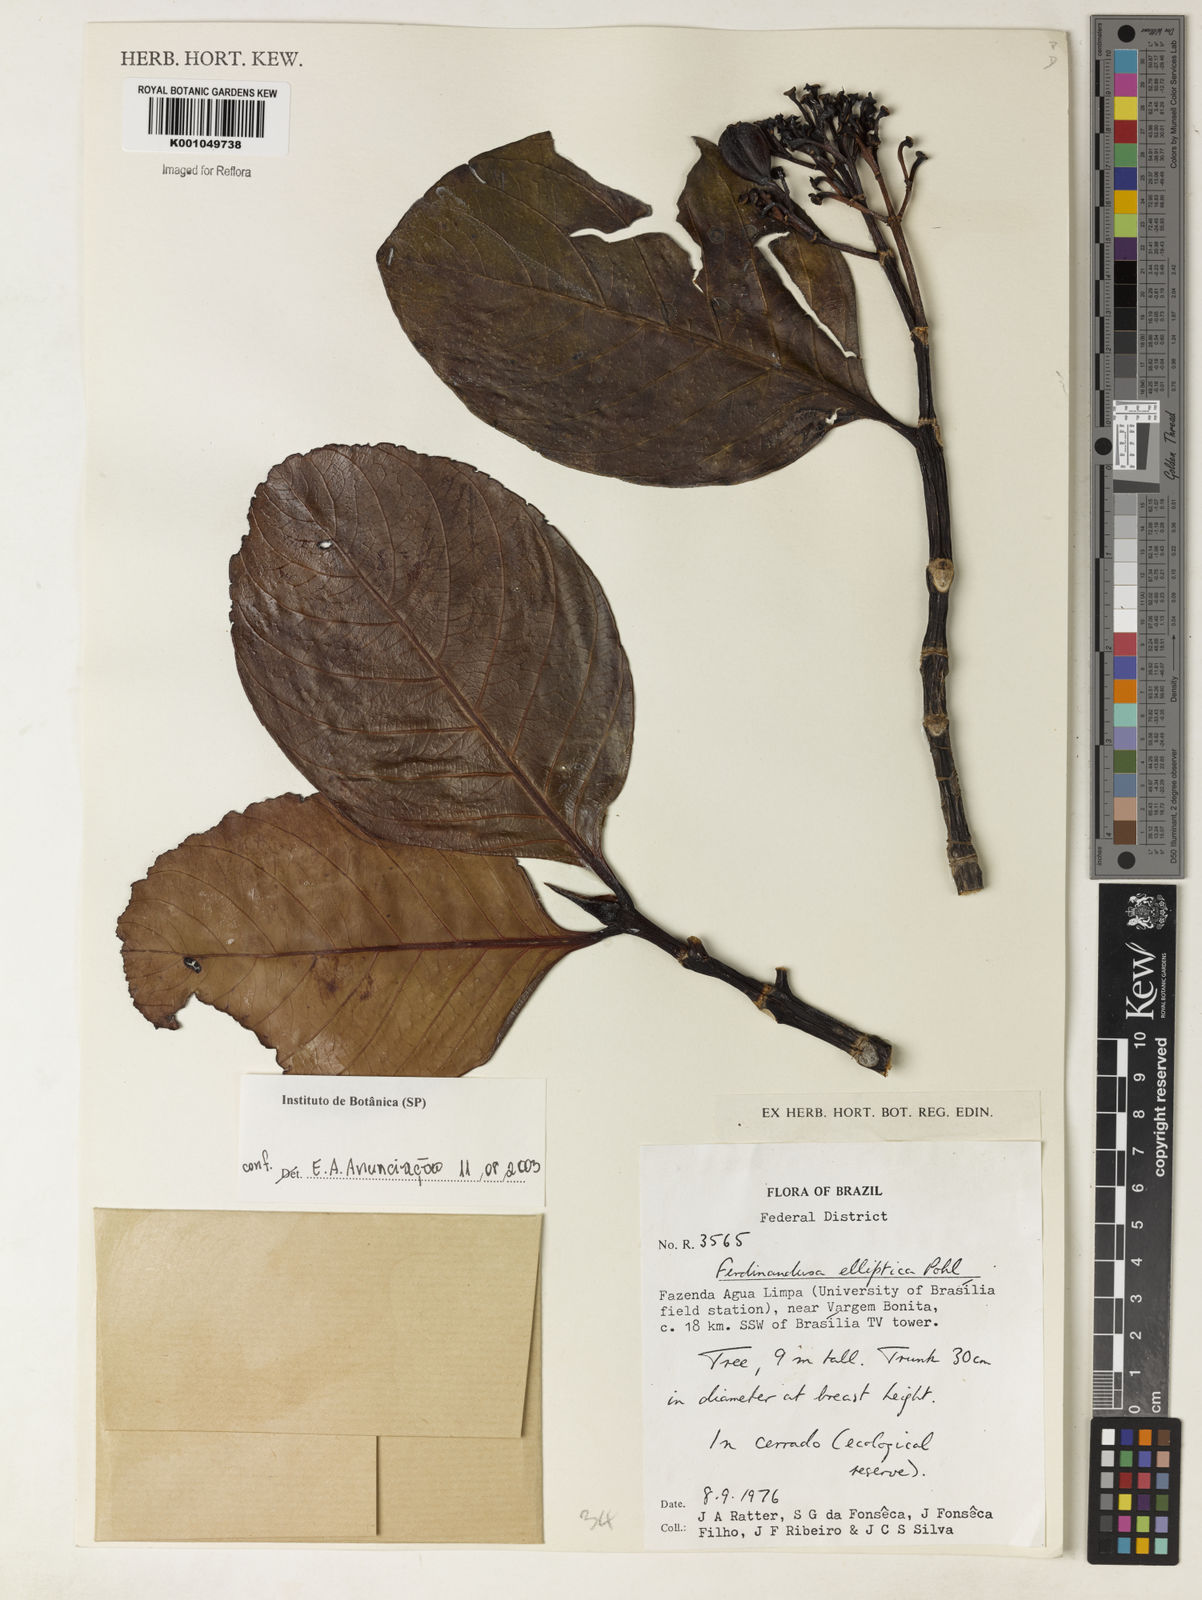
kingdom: Plantae
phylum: Tracheophyta
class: Magnoliopsida
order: Gentianales
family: Rubiaceae
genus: Ferdinandusa
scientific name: Ferdinandusa elliptica
